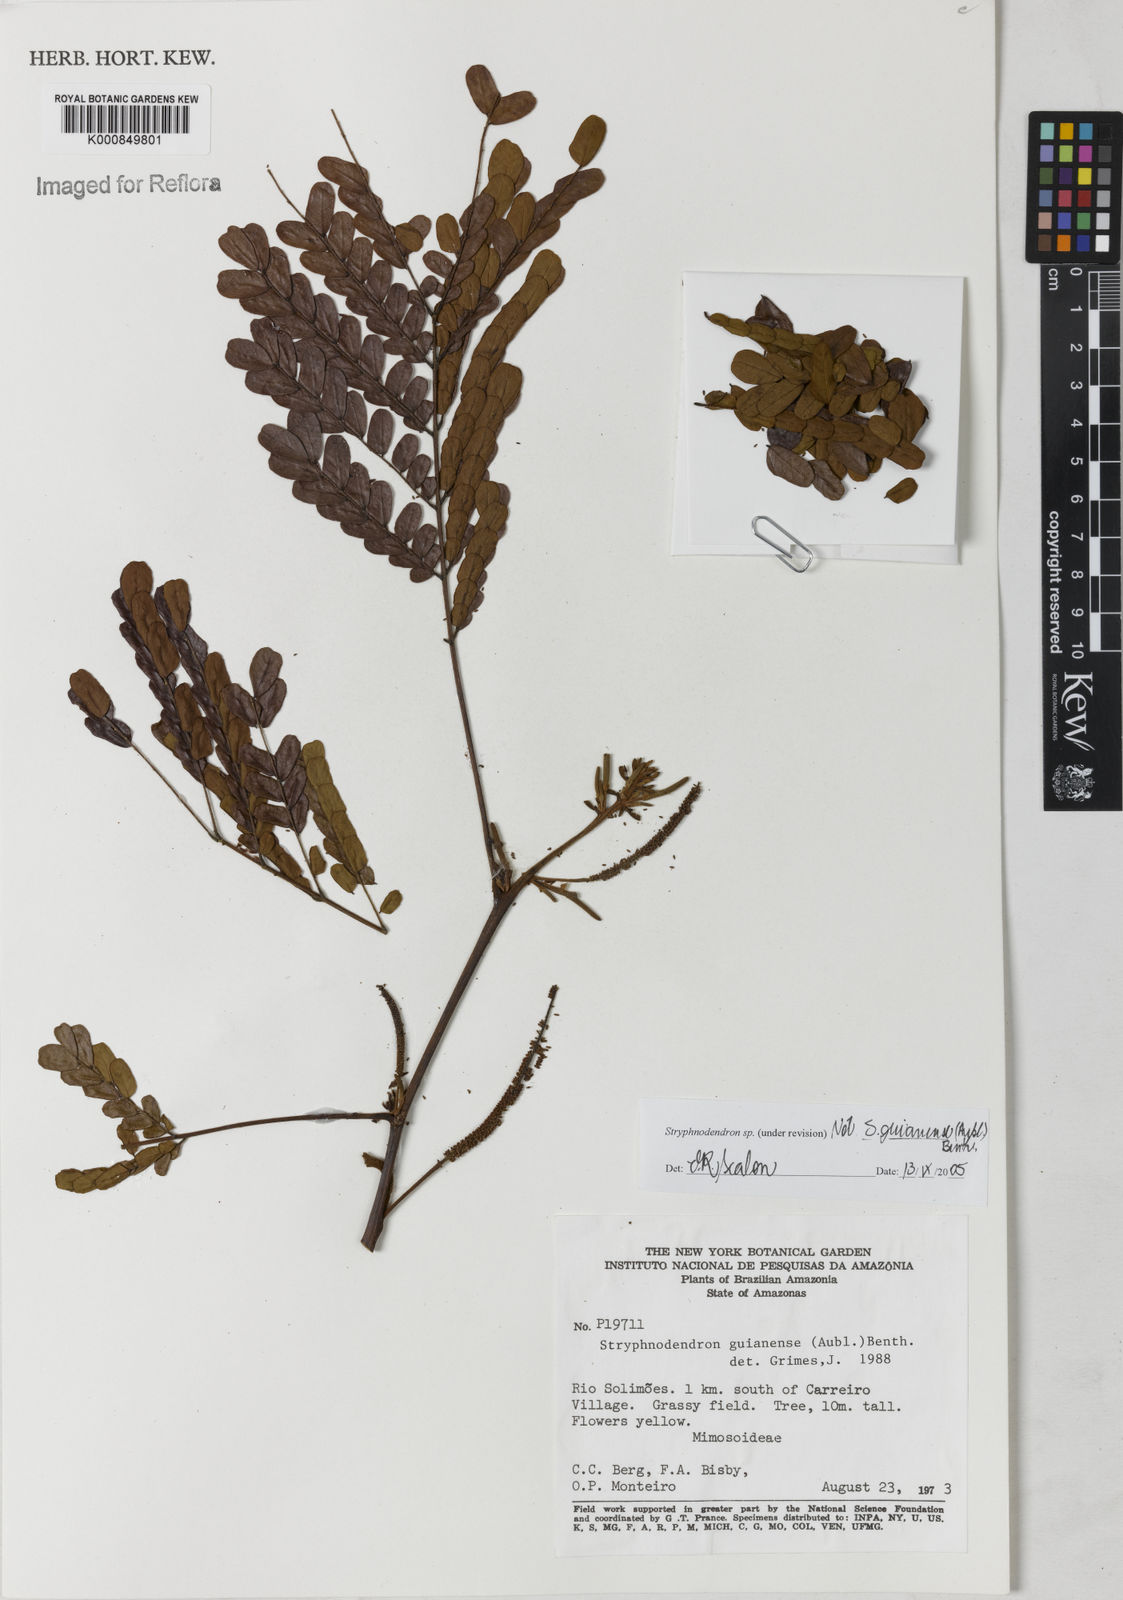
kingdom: Plantae
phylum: Tracheophyta
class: Magnoliopsida
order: Fabales
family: Fabaceae
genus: Stryphnodendron
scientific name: Stryphnodendron
